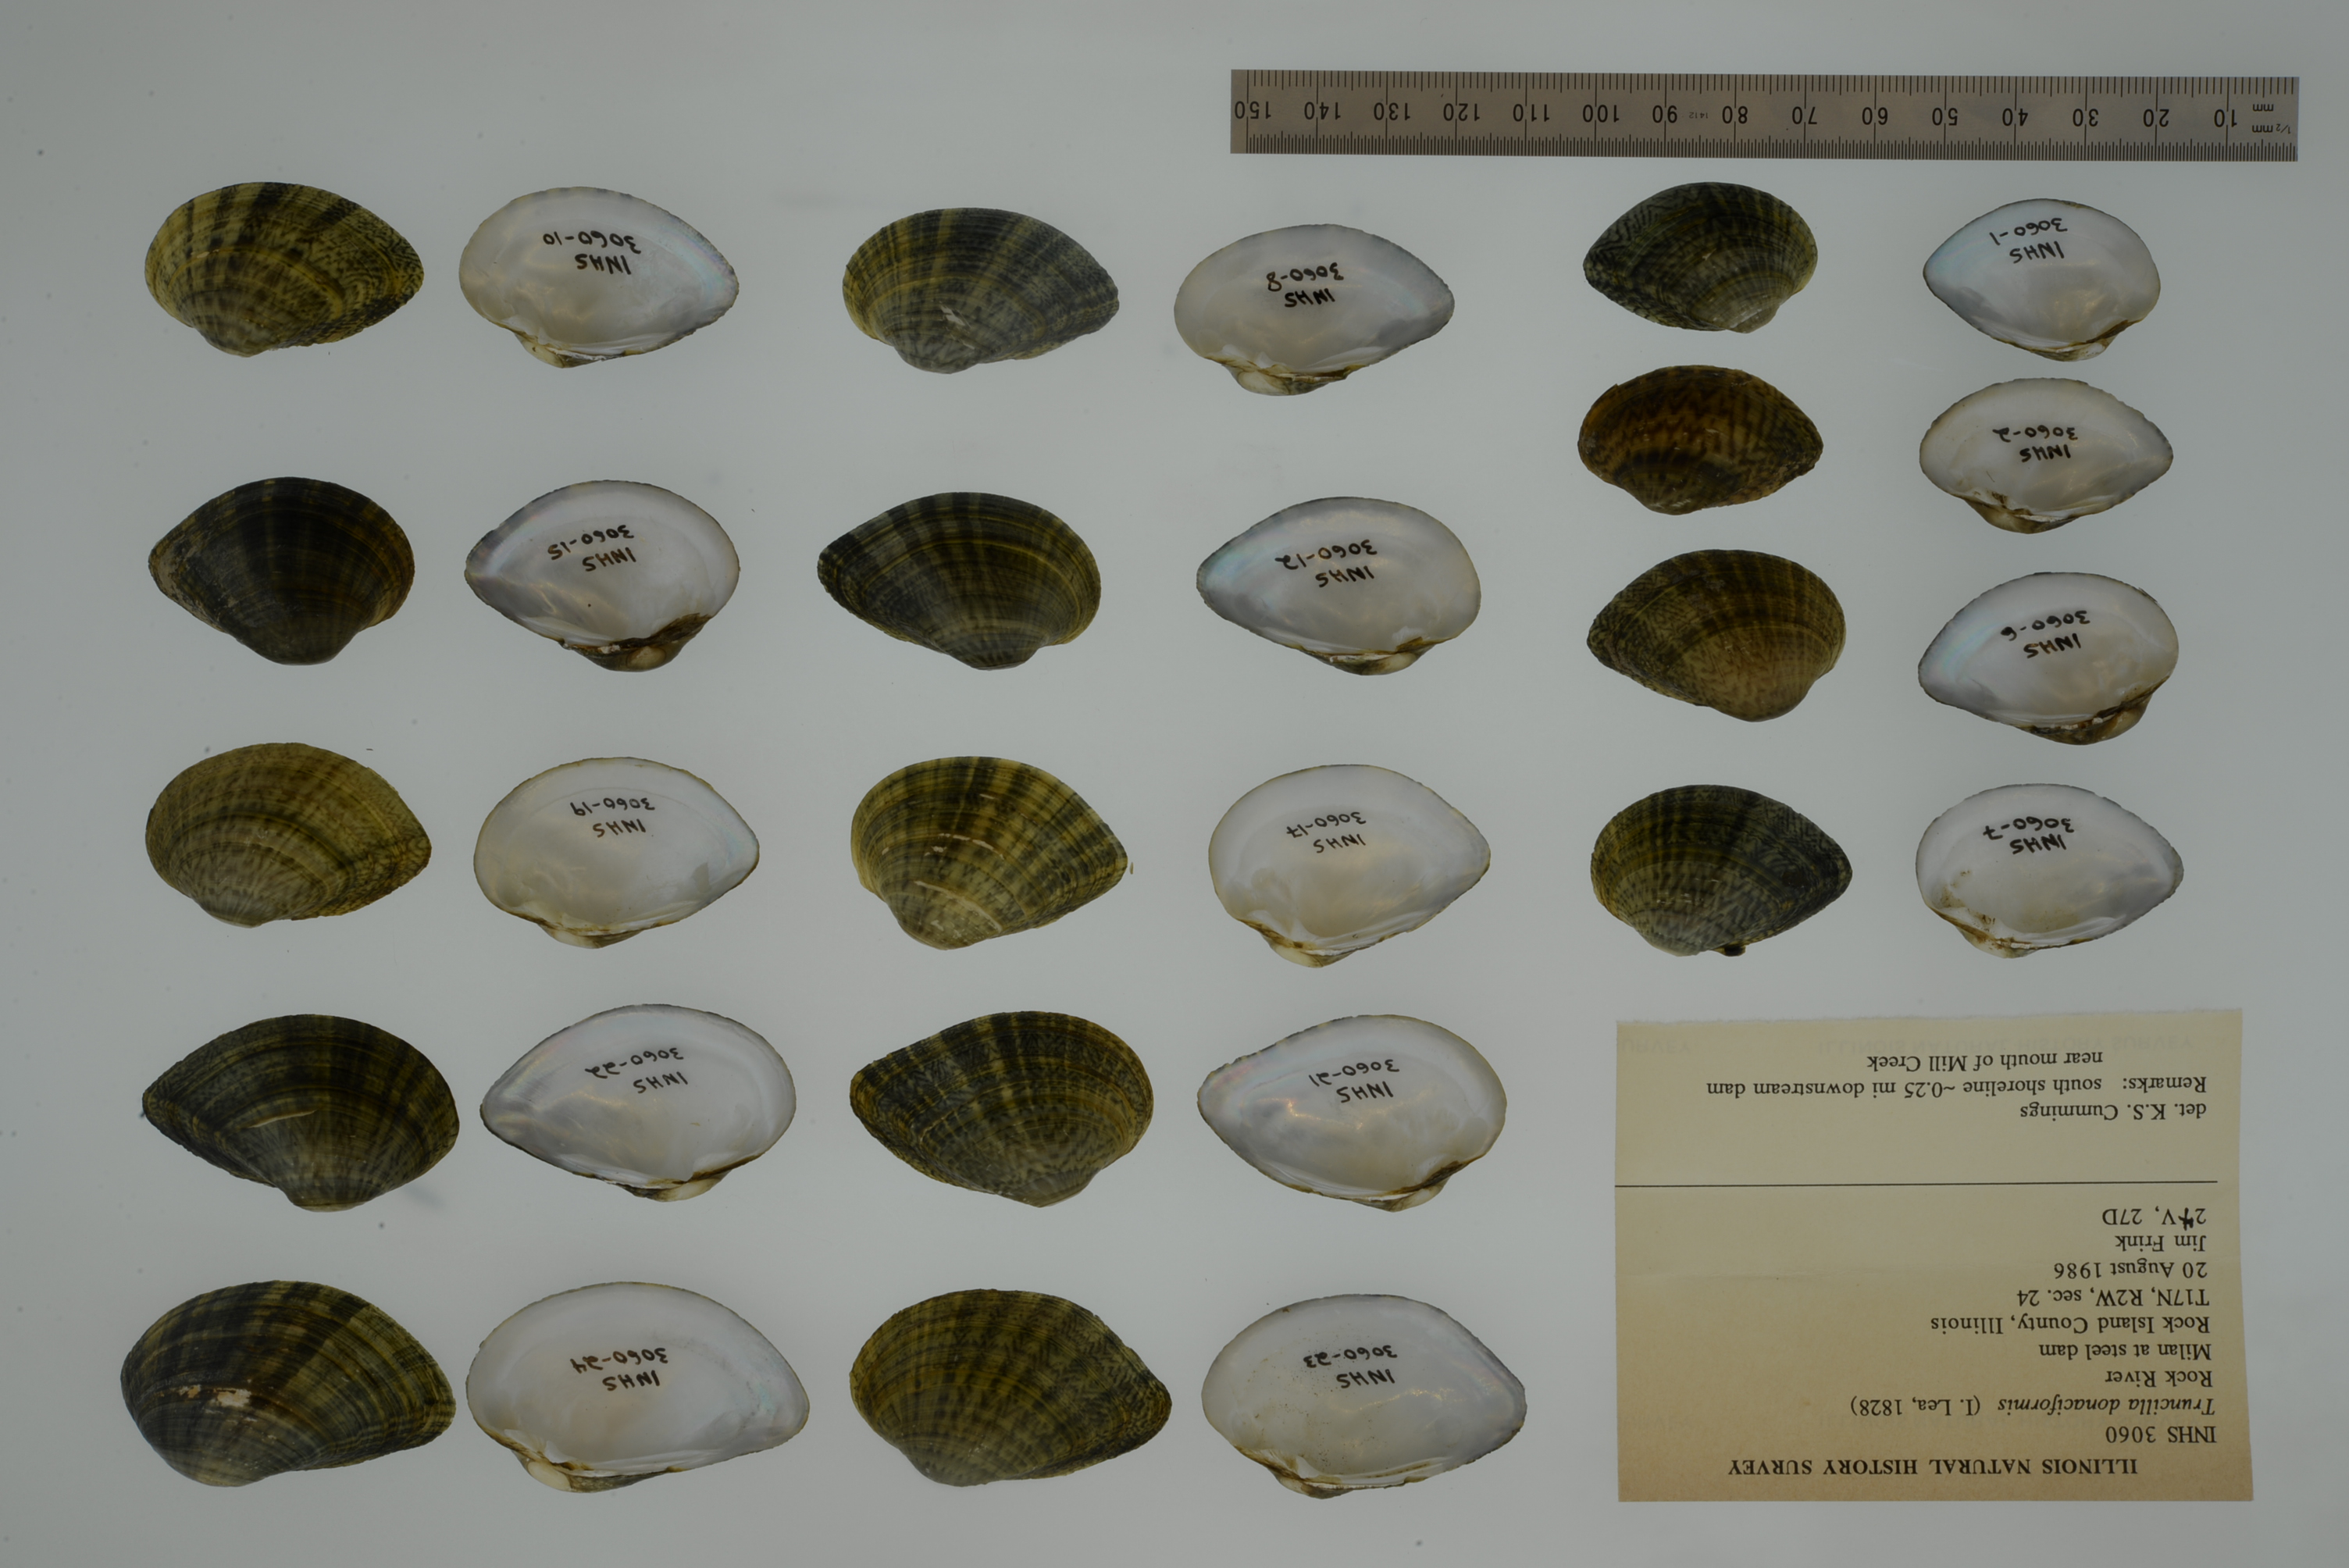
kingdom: Animalia
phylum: Mollusca
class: Bivalvia
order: Unionida
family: Unionidae
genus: Truncilla
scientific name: Truncilla donaciformis
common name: Fawnsfoot
